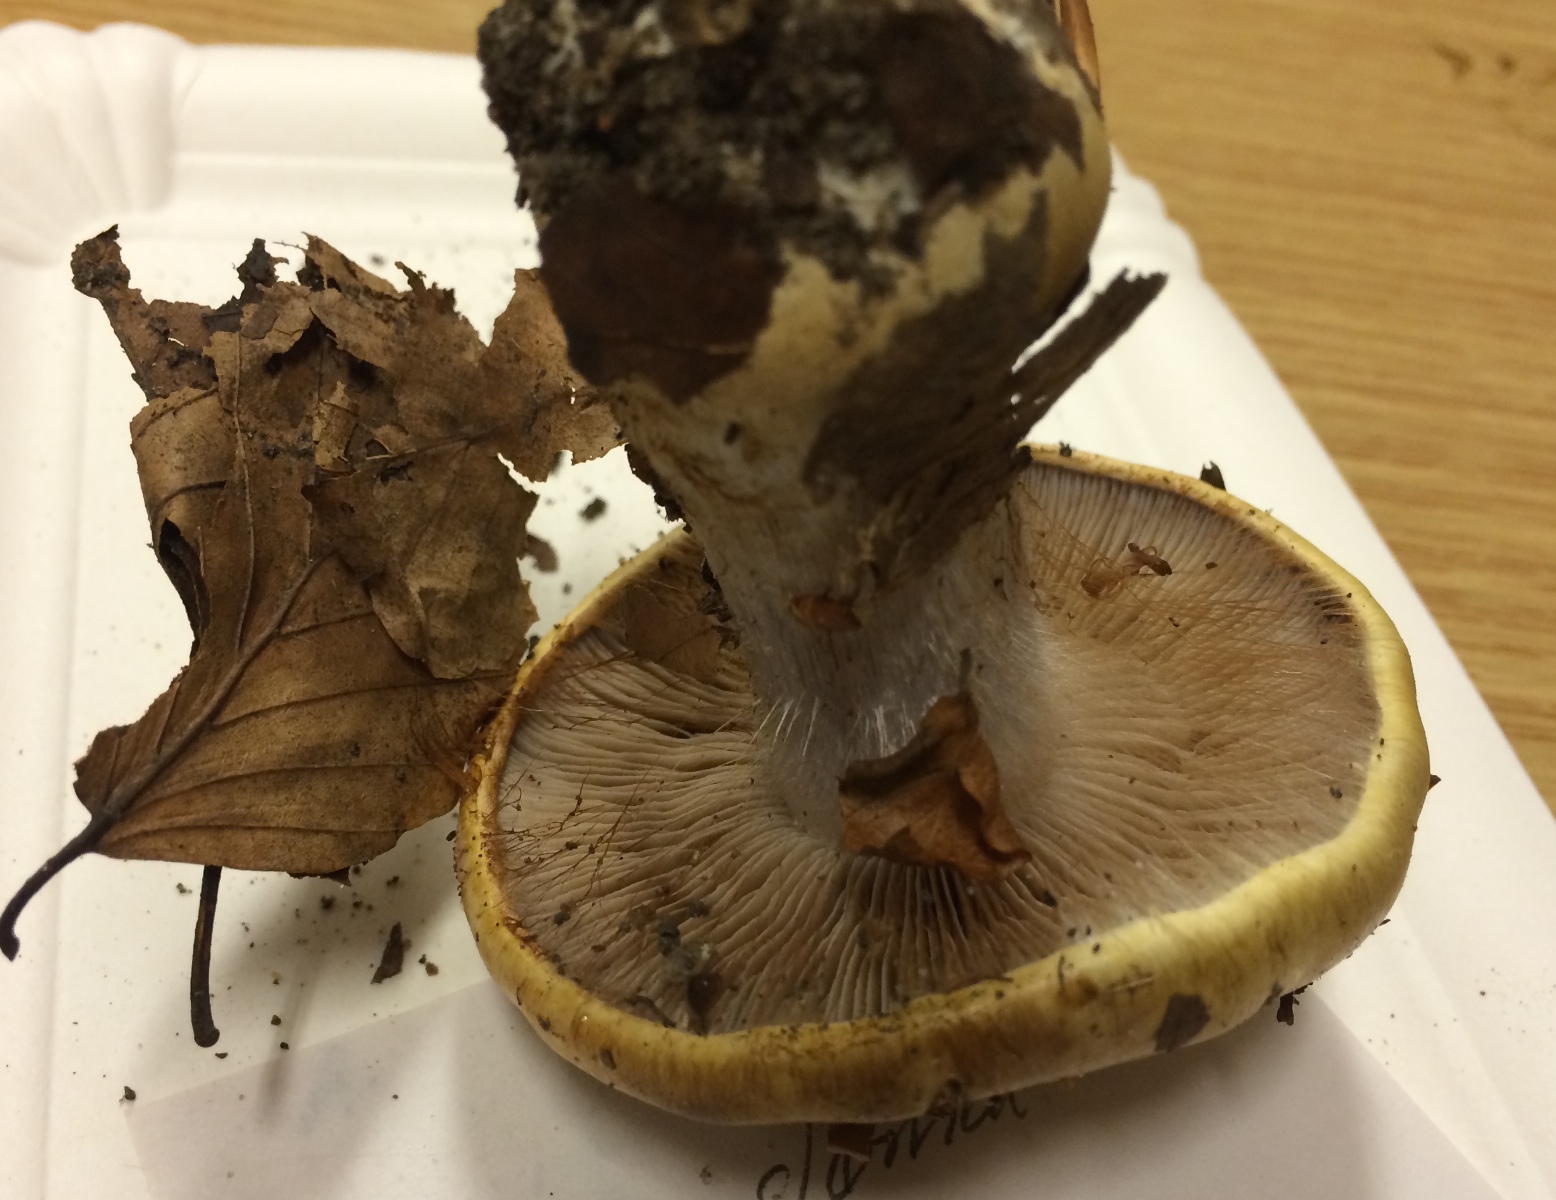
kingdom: Fungi
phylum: Basidiomycota
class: Agaricomycetes
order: Agaricales
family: Cortinariaceae
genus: Cortinarius
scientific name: Cortinarius anserinus
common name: bøge-slørhat
